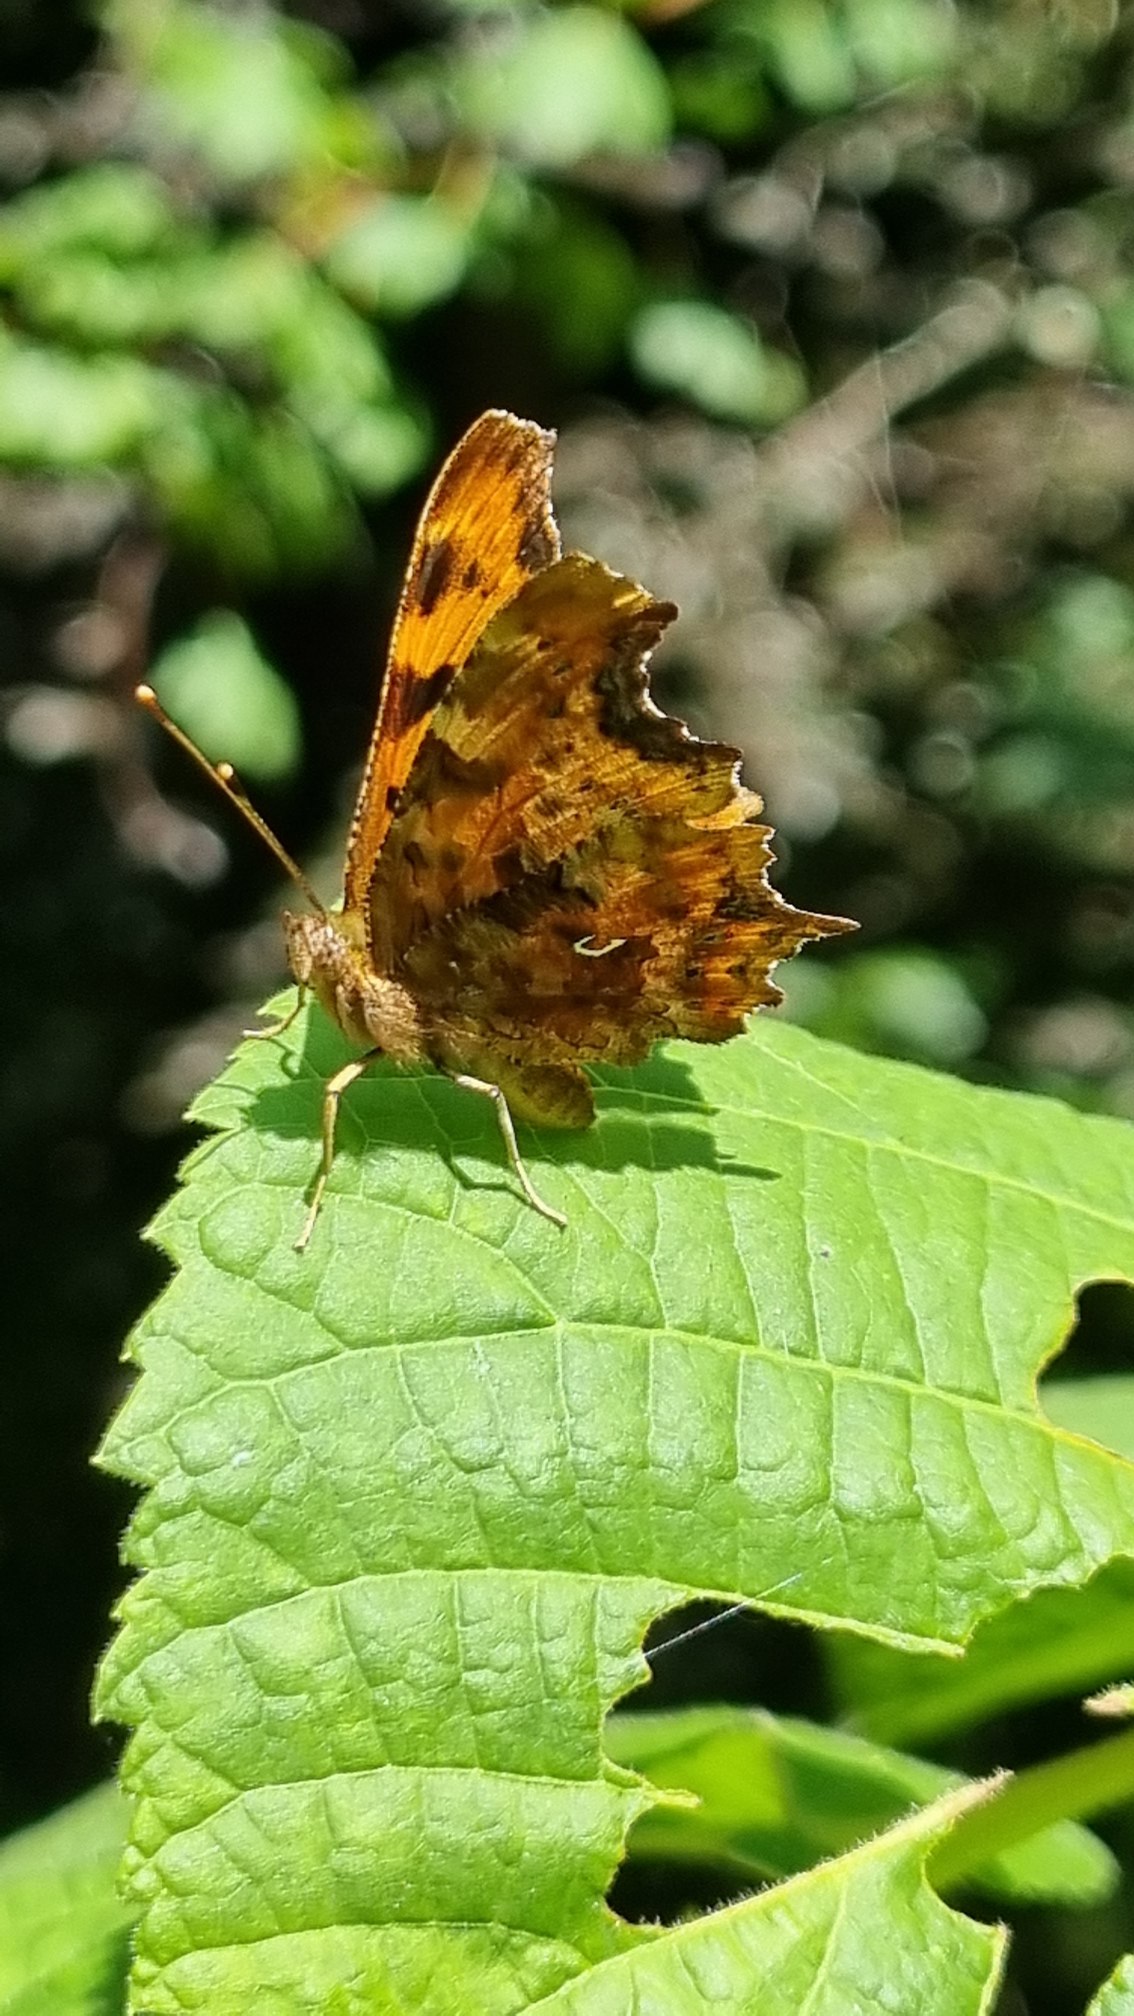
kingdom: Animalia
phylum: Arthropoda
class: Insecta
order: Lepidoptera
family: Nymphalidae
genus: Polygonia
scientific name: Polygonia c-album
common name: Det hvide C
